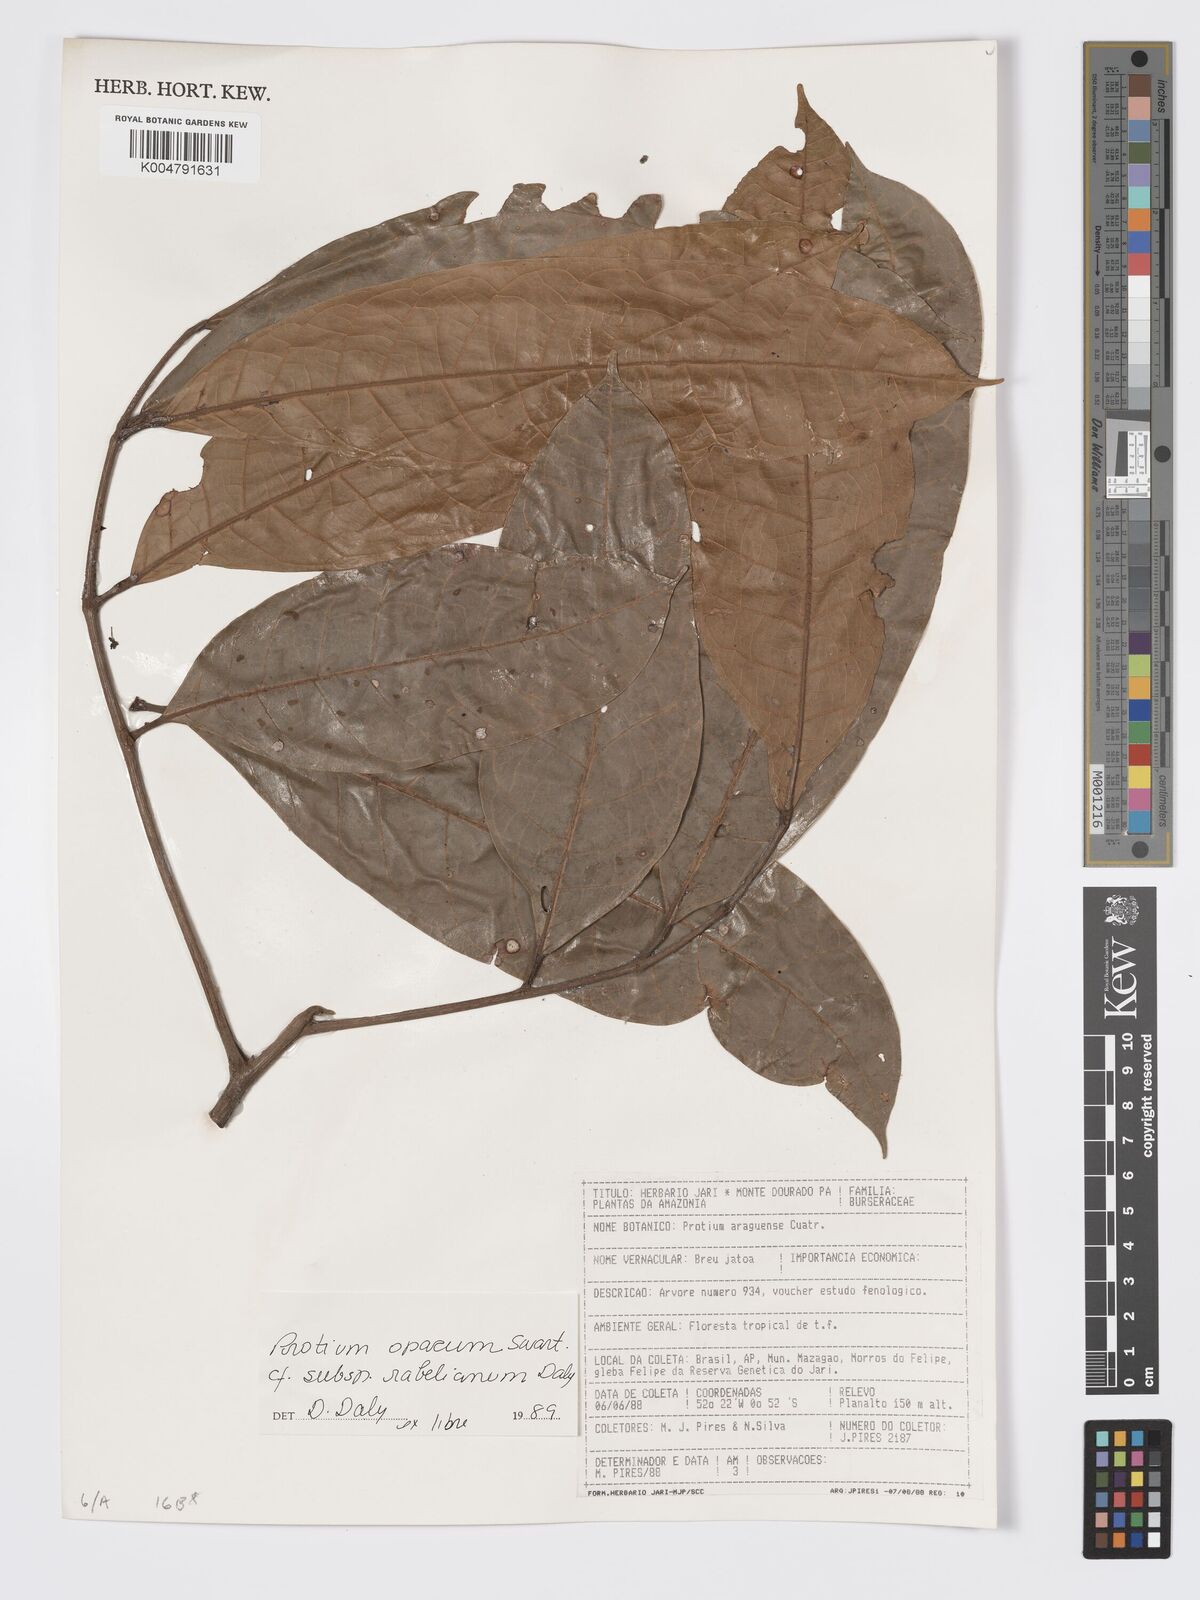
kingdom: Plantae
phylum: Tracheophyta
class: Magnoliopsida
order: Sapindales
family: Burseraceae
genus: Protium
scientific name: Protium opacum
